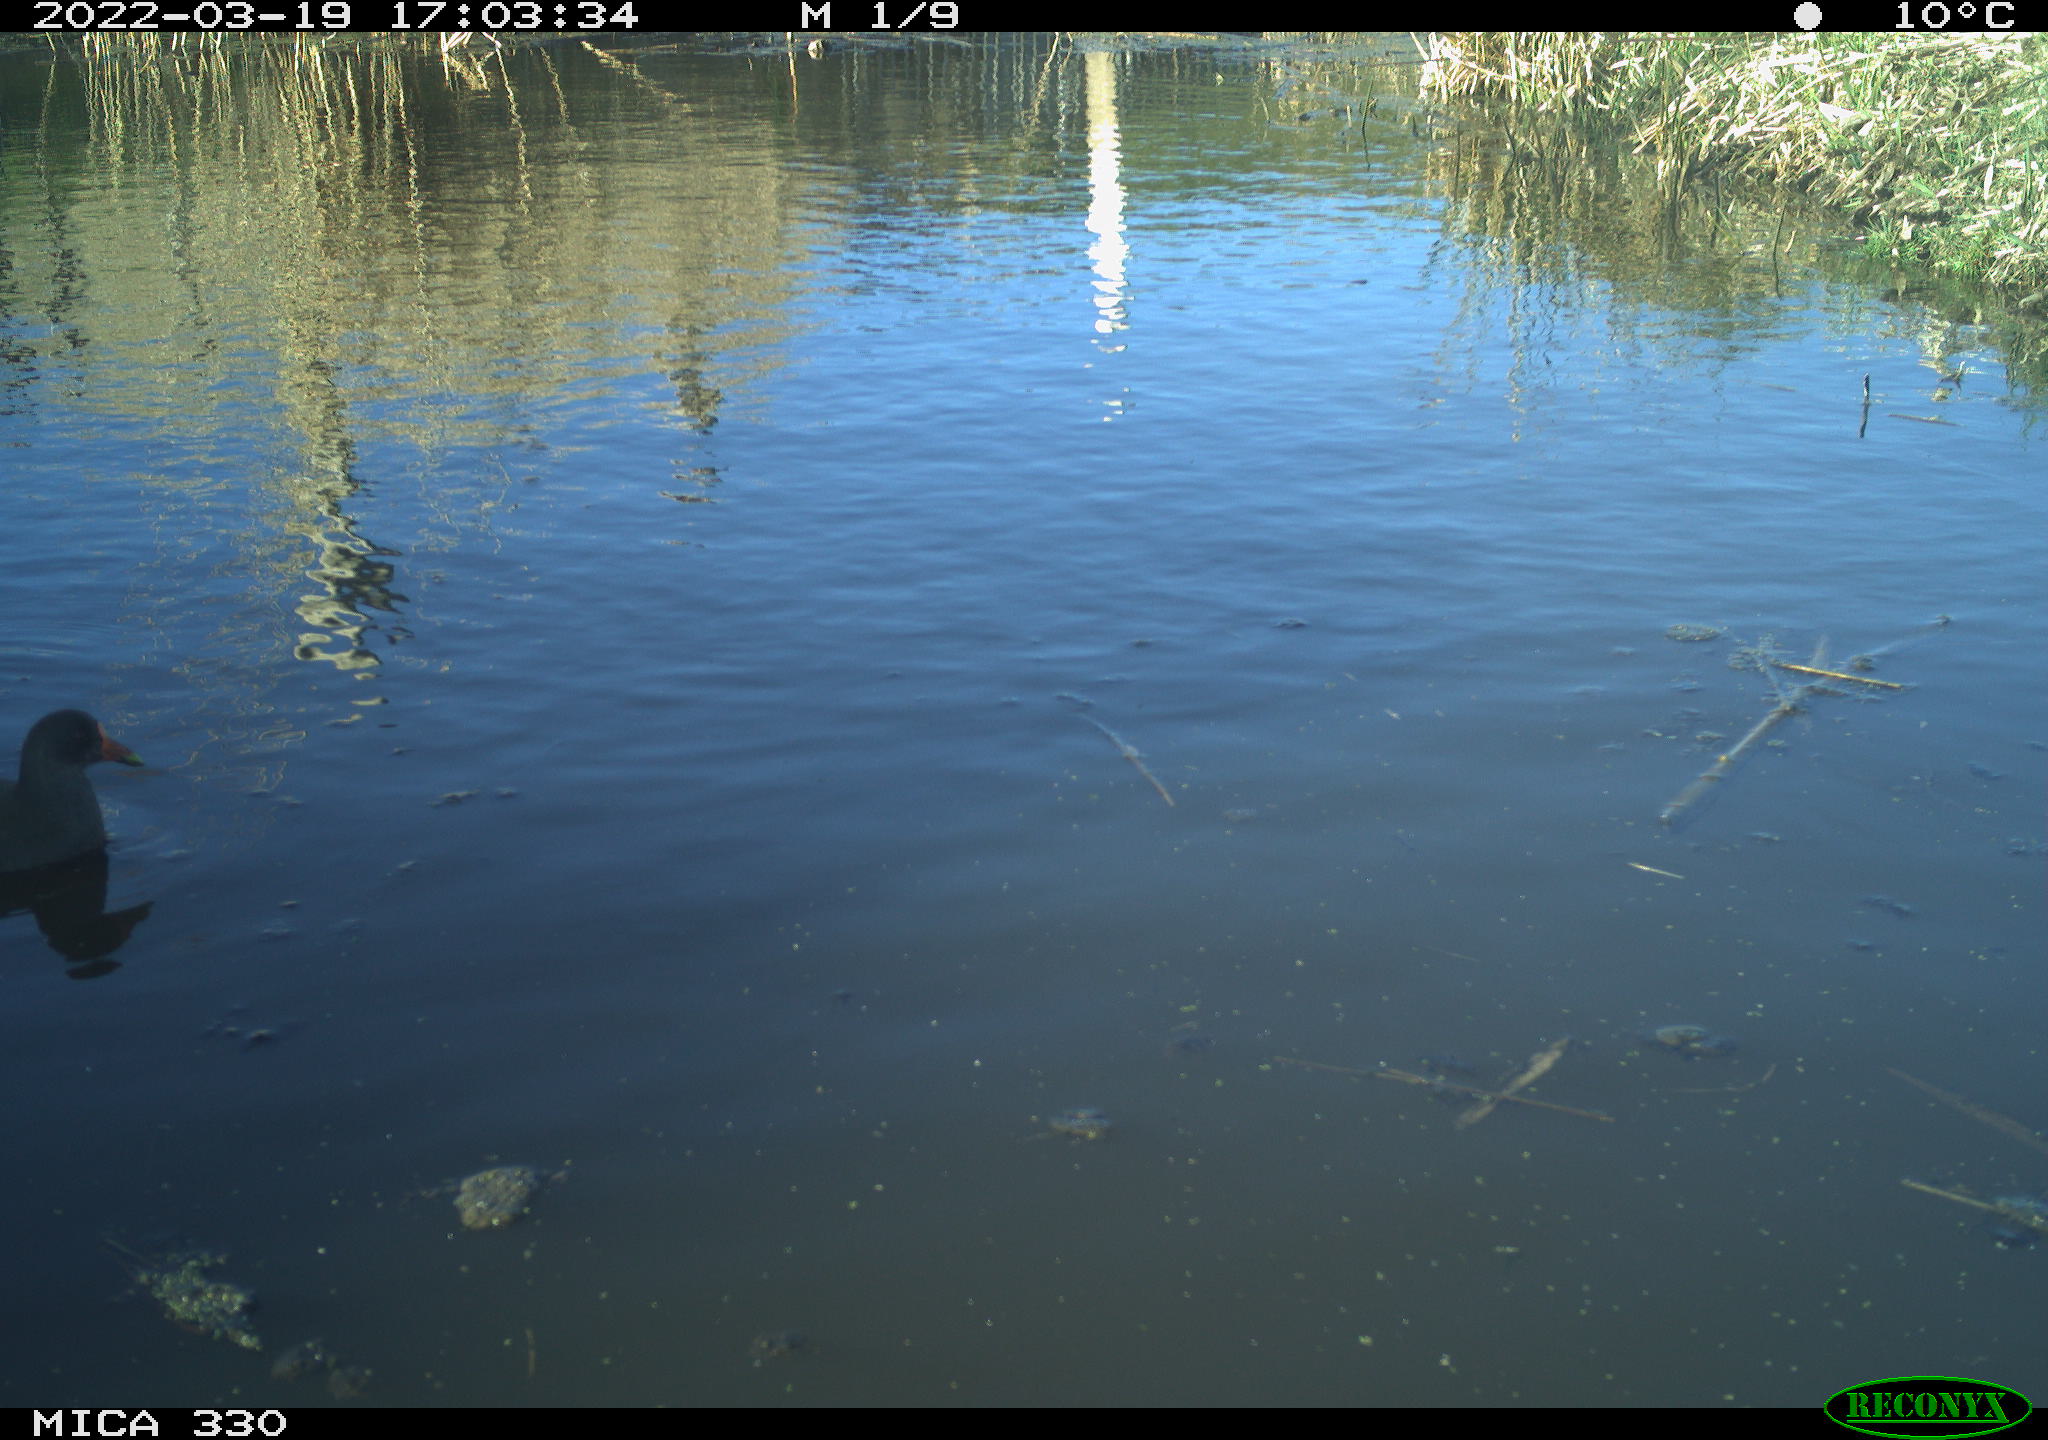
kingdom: Animalia
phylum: Chordata
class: Aves
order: Gruiformes
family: Rallidae
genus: Gallinula
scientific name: Gallinula chloropus
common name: Common moorhen
